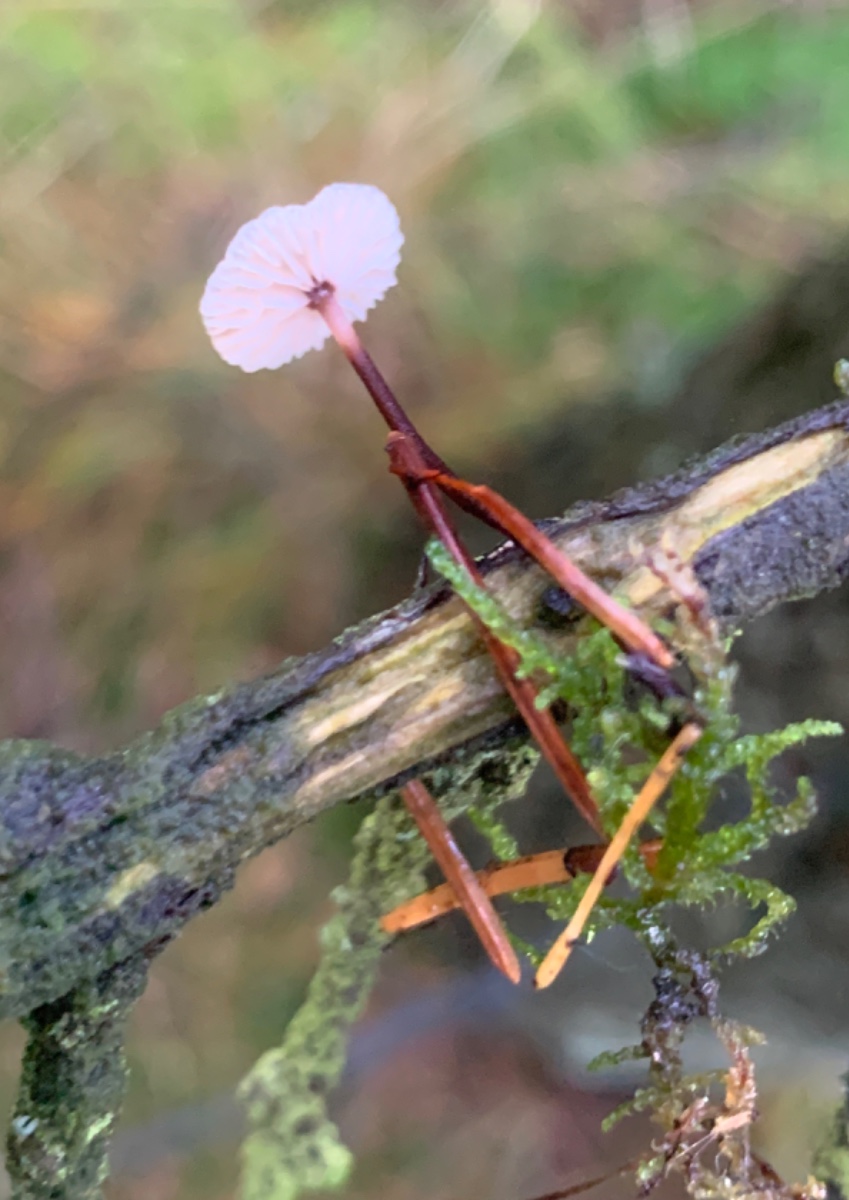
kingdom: Fungi
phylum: Basidiomycota
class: Agaricomycetes
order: Agaricales
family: Omphalotaceae
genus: Paragymnopus
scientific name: Paragymnopus perforans
